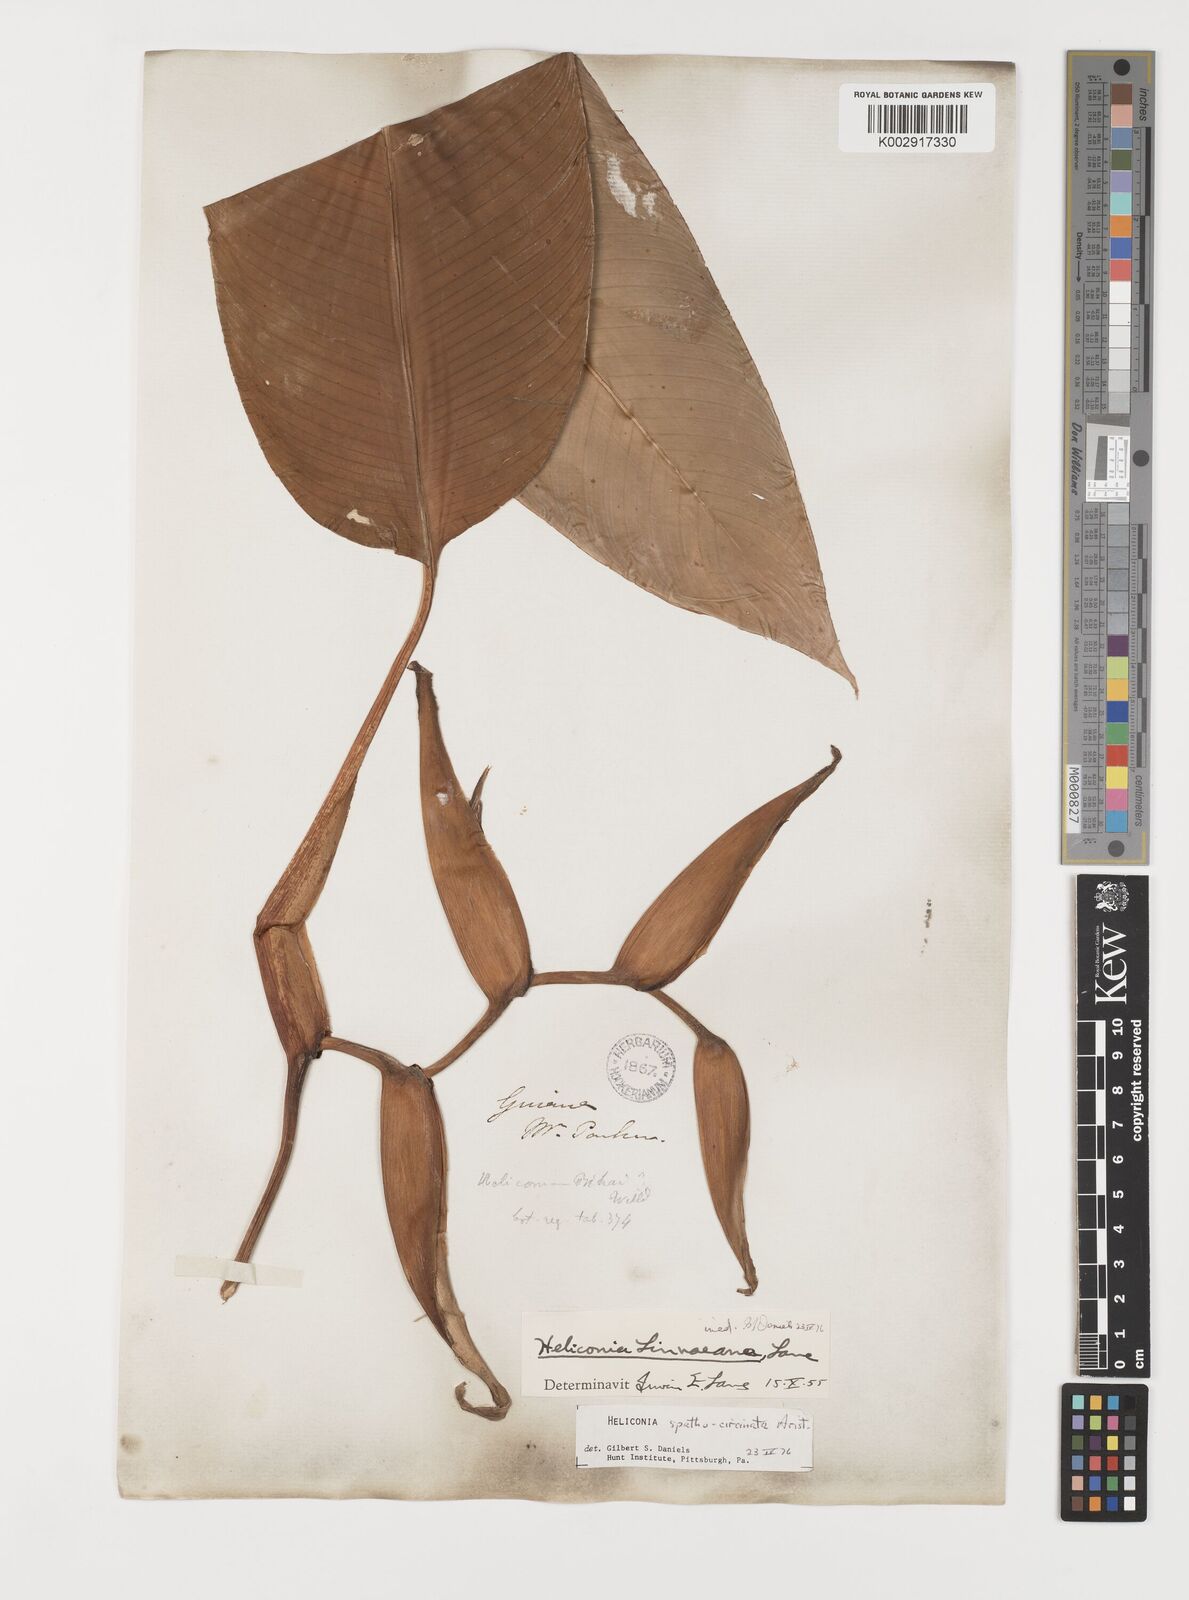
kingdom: Plantae
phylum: Tracheophyta
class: Liliopsida
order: Zingiberales
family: Heliconiaceae
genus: Heliconia
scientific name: Heliconia spathocircinata
